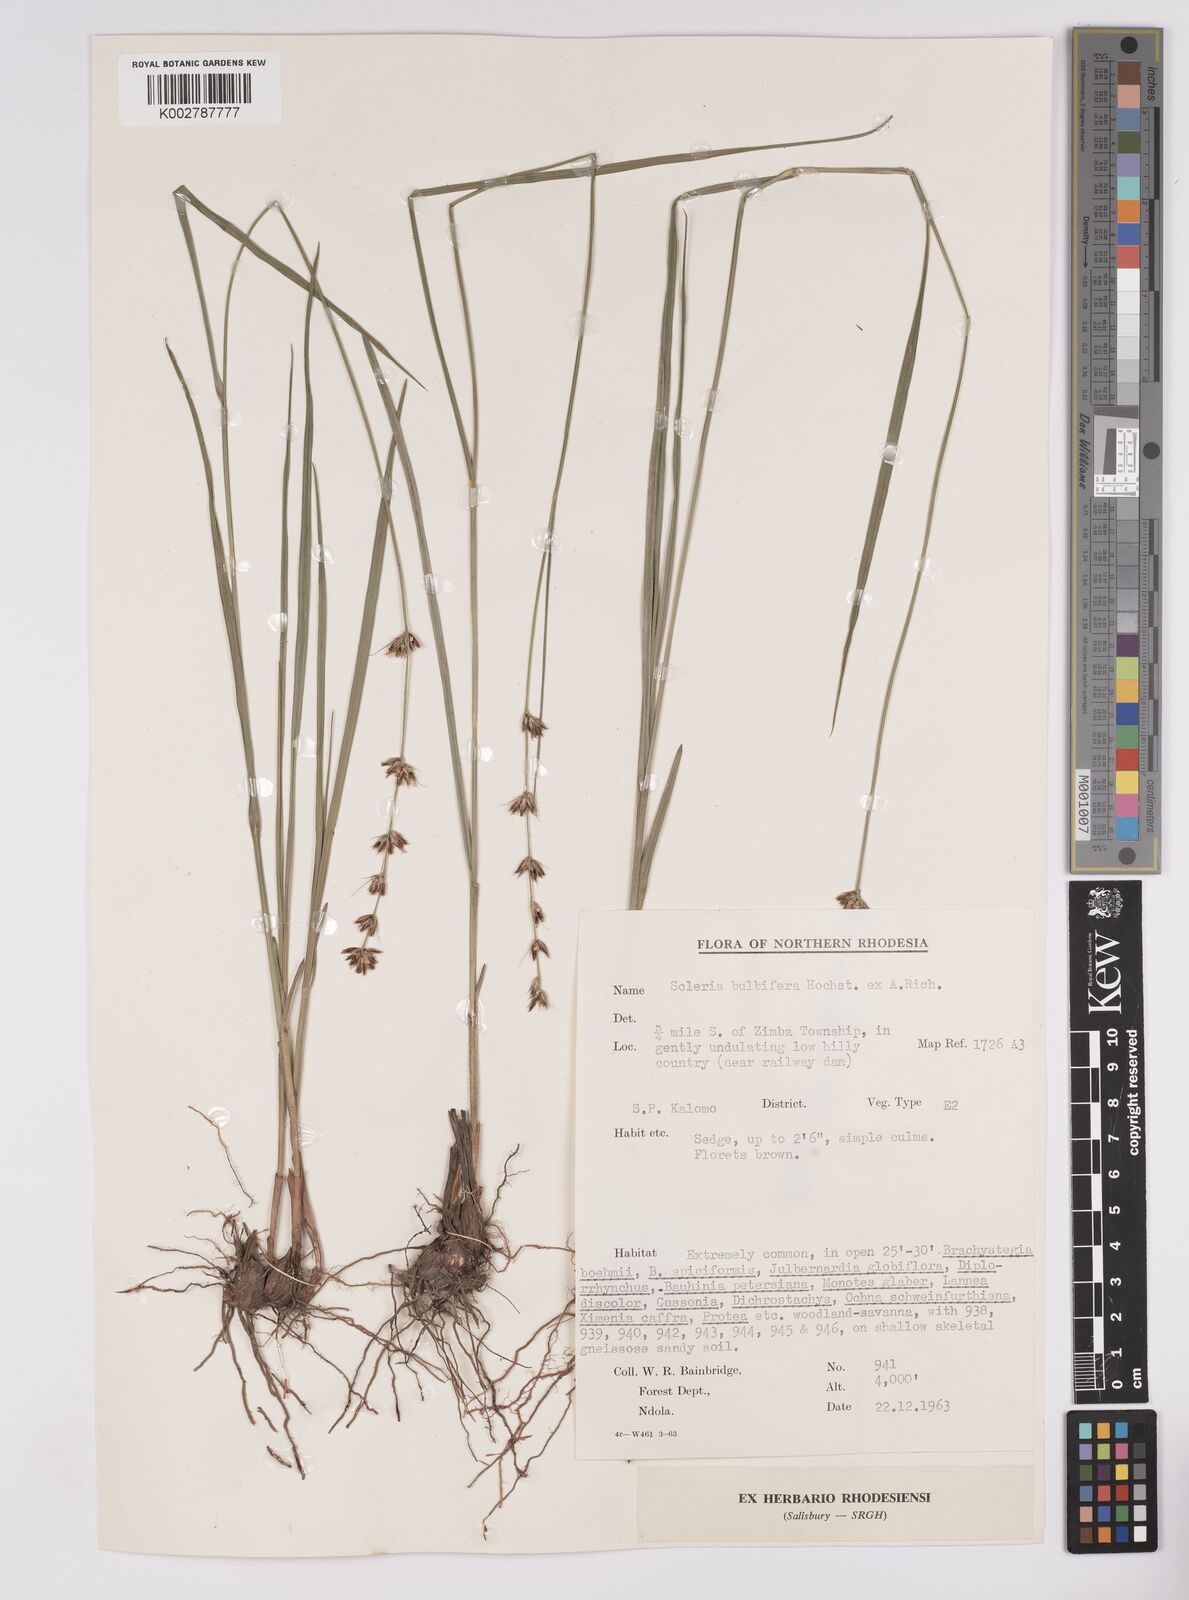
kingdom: Plantae
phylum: Tracheophyta
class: Liliopsida
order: Poales
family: Cyperaceae
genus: Scleria
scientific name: Scleria bulbifera
